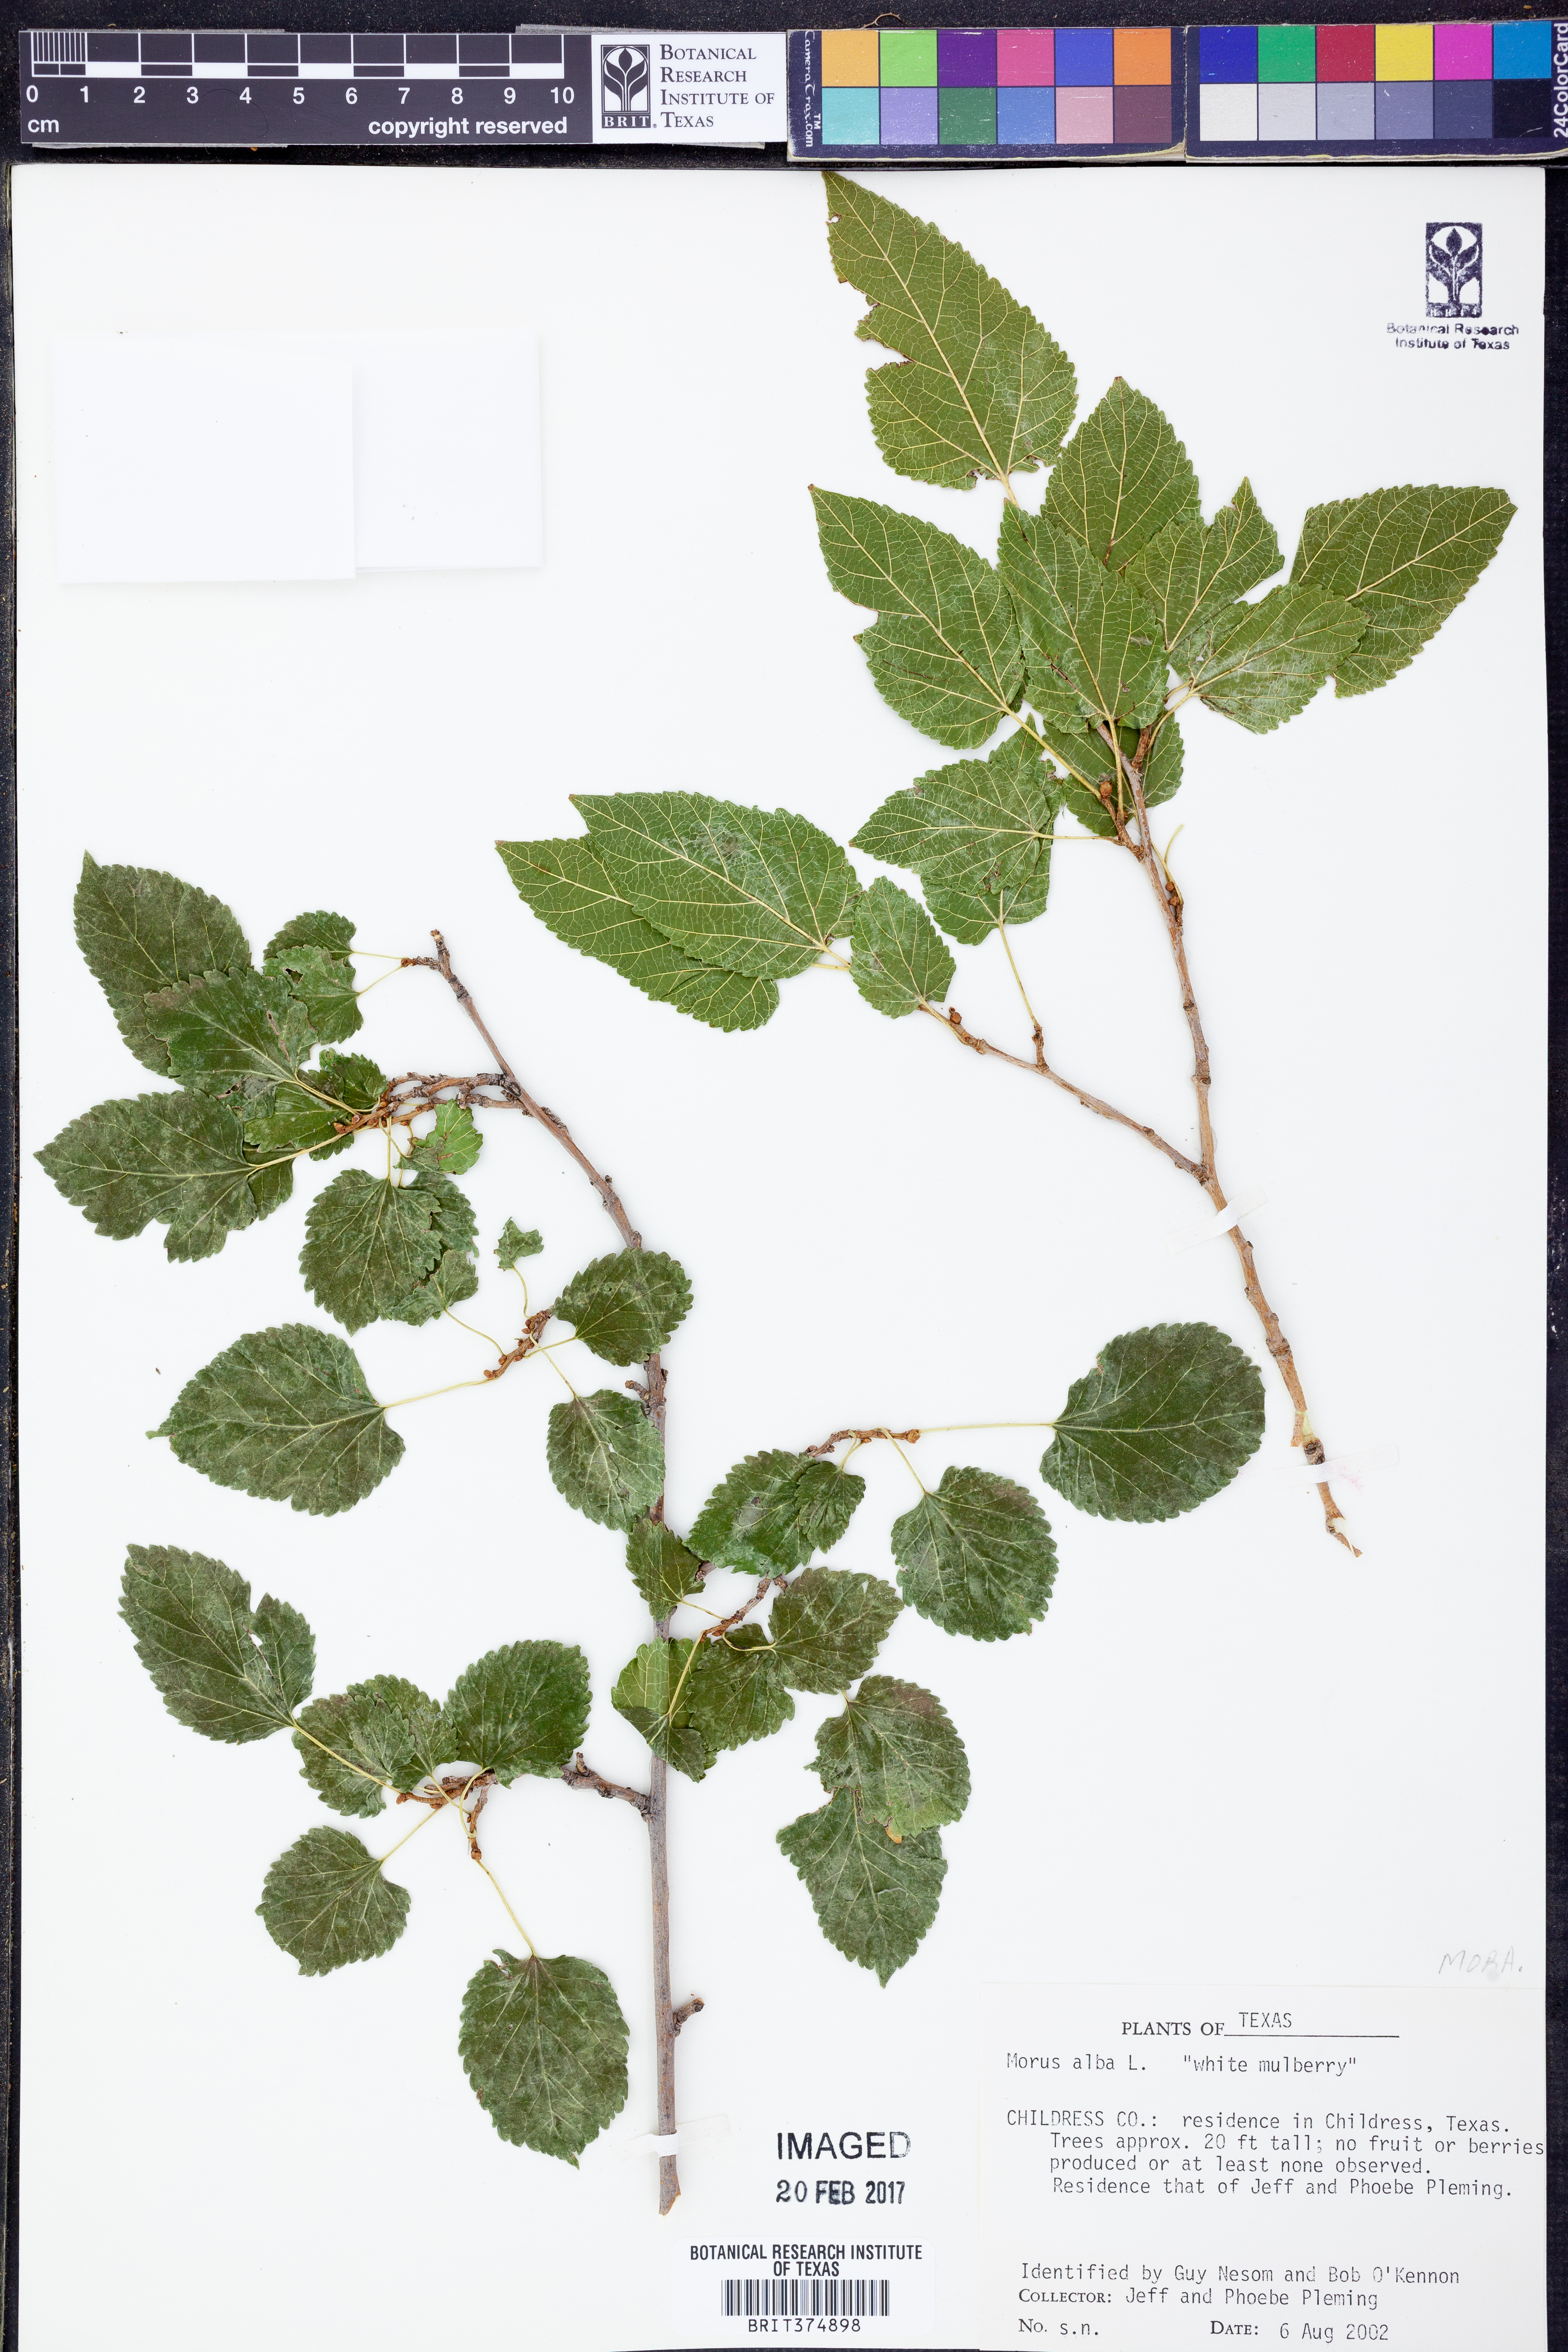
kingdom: Plantae
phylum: Tracheophyta
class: Magnoliopsida
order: Rosales
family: Moraceae
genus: Morus
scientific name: Morus alba
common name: White mulberry
